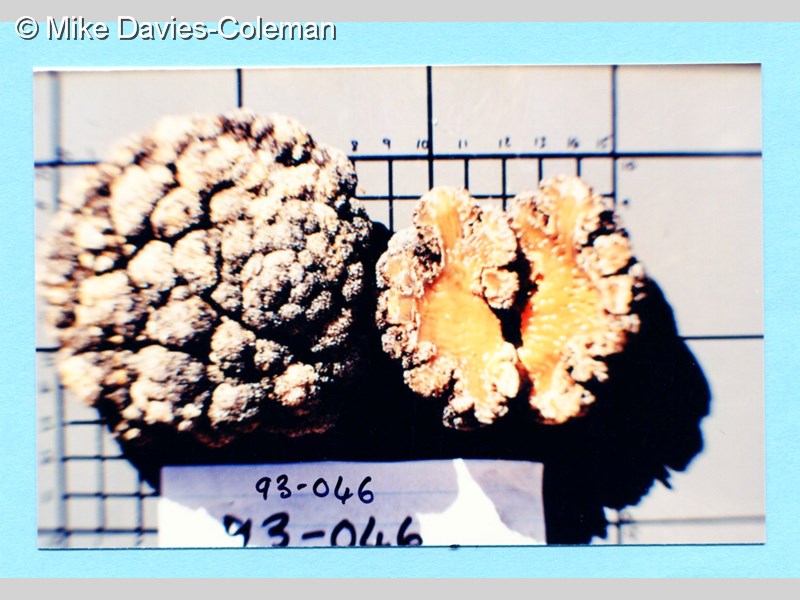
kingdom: Animalia
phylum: Cnidaria
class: Anthozoa
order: Malacalcyonacea
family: Capnellidae
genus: Eunephthya
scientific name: Eunephthya thyrsoidea
